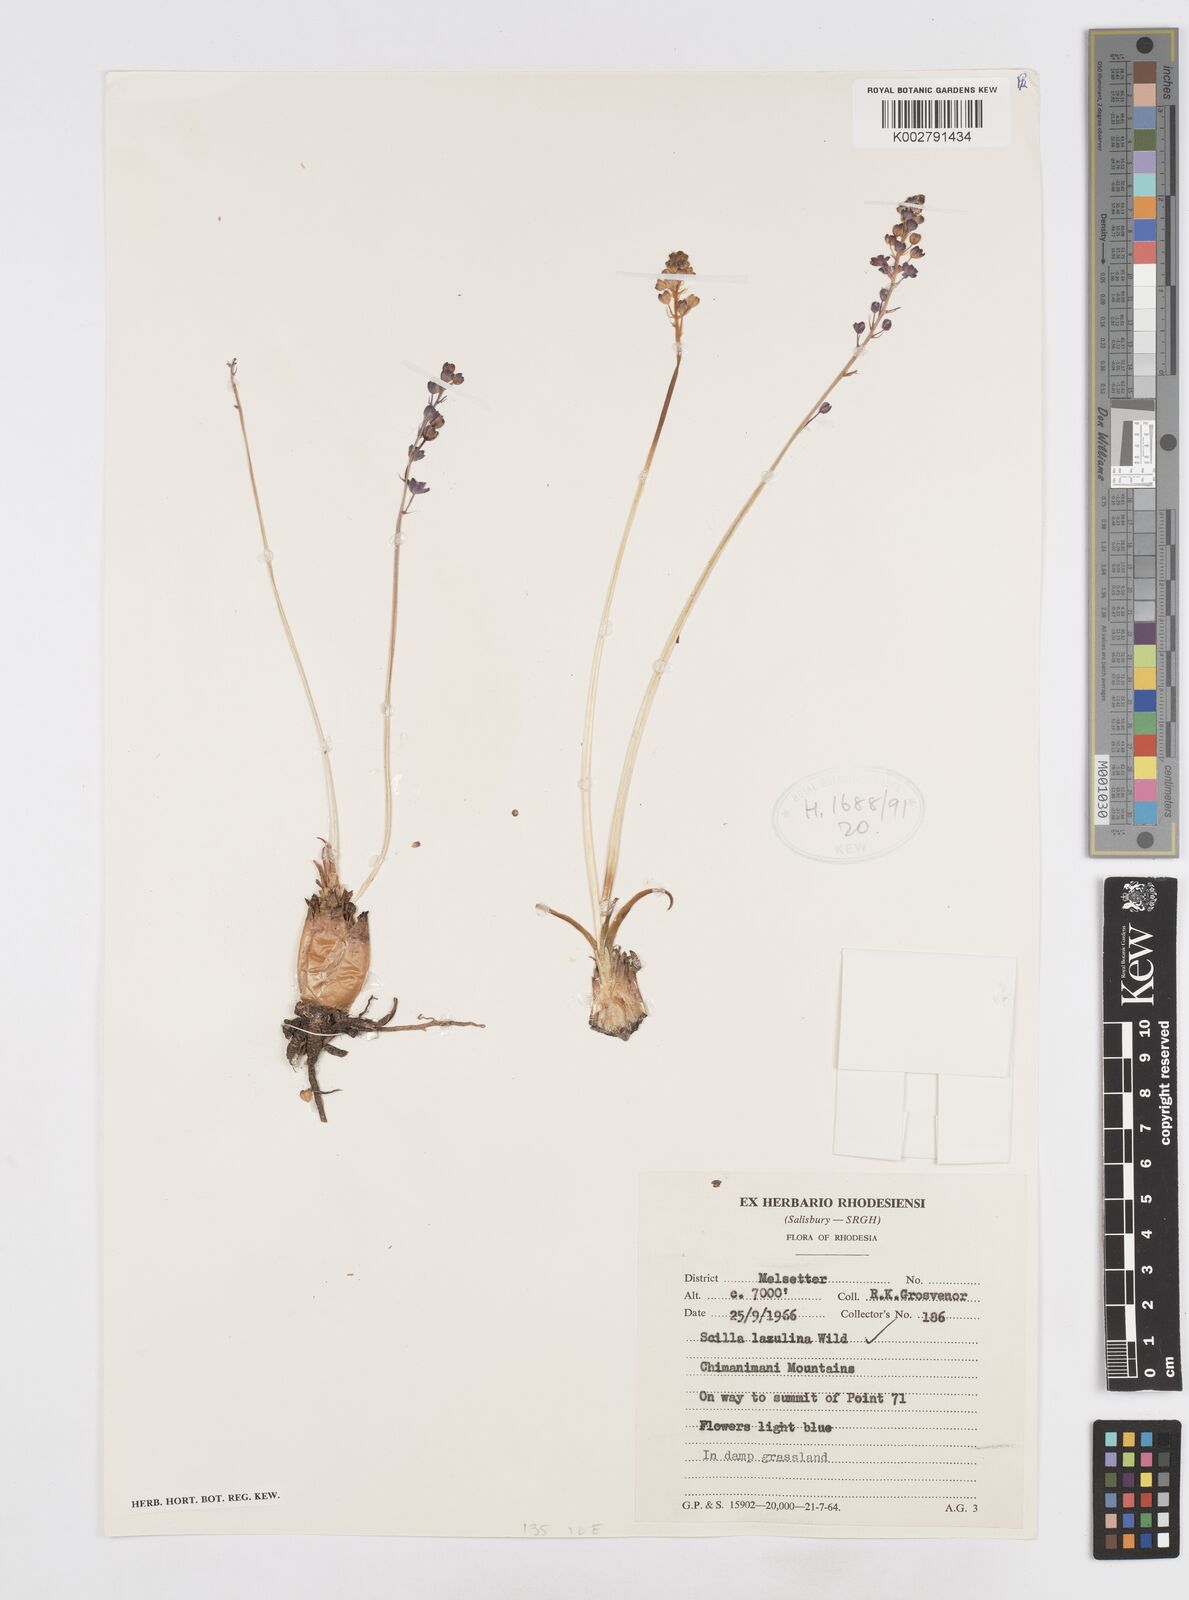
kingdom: Plantae
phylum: Tracheophyta
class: Liliopsida
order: Asparagales
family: Asparagaceae
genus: Scilla
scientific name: Scilla
